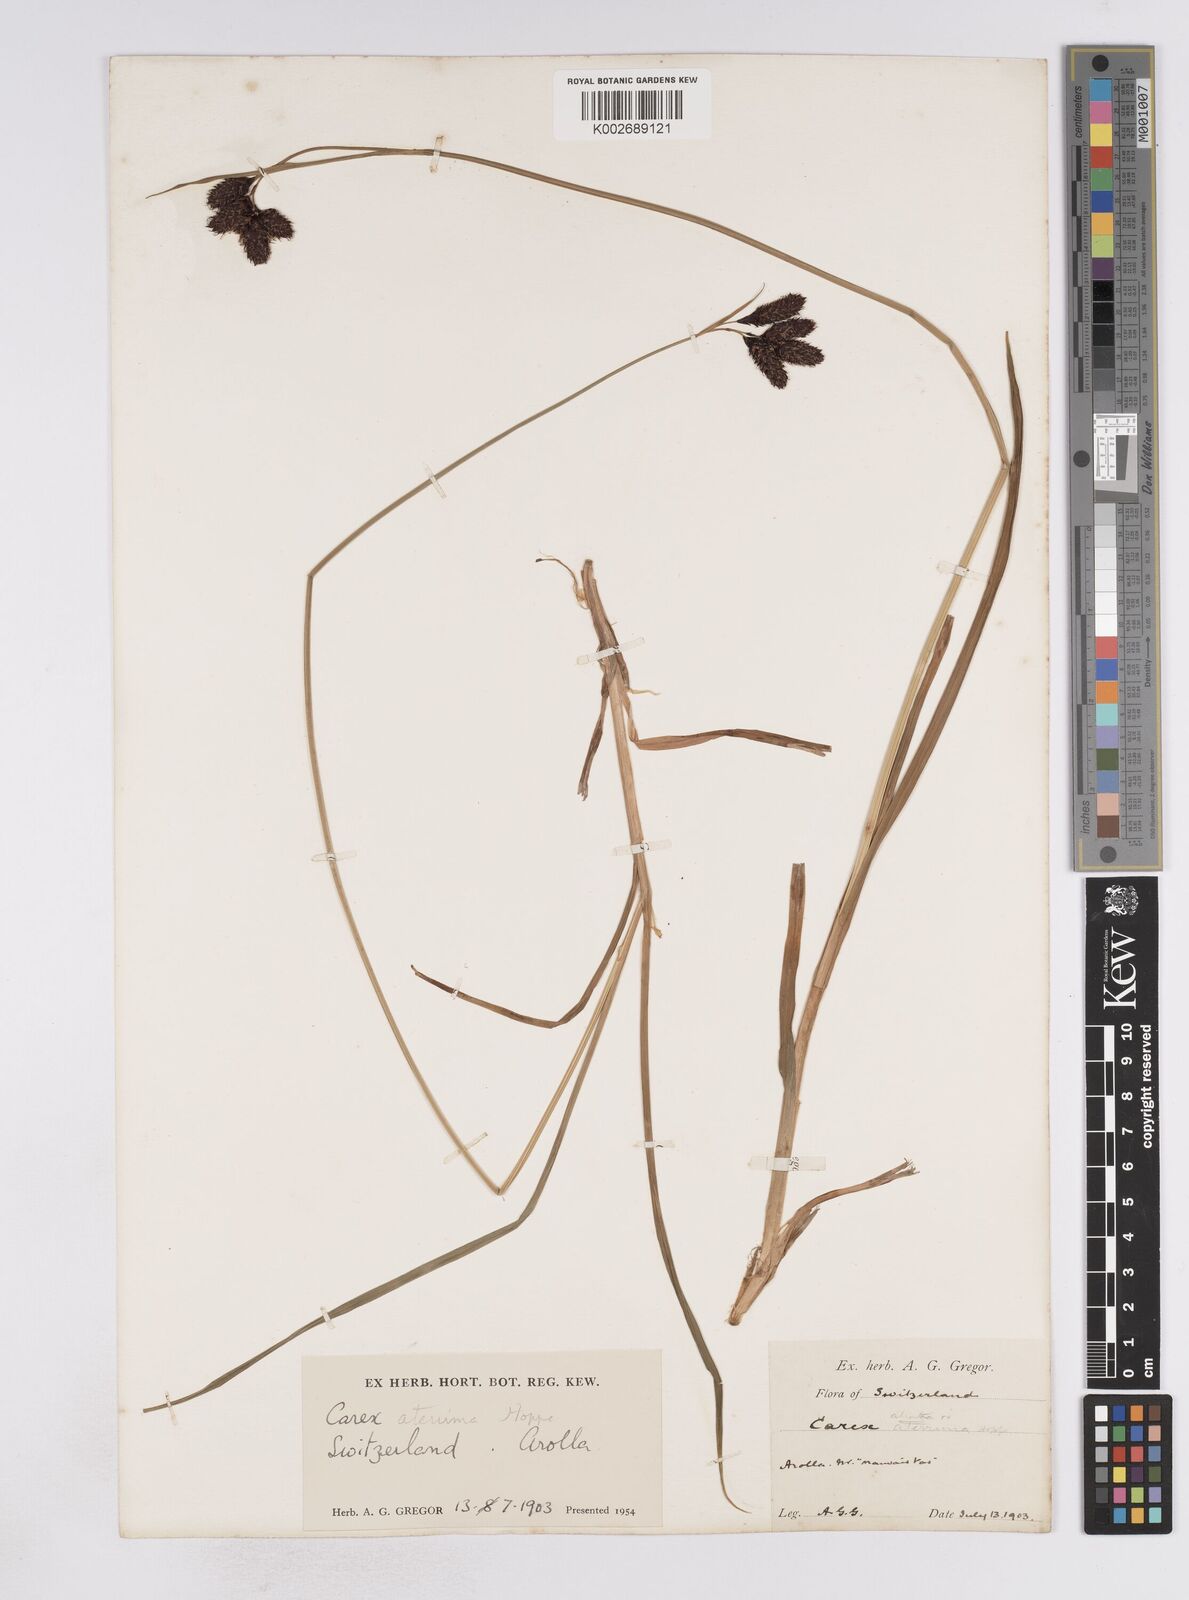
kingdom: Plantae
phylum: Tracheophyta
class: Liliopsida
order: Poales
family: Cyperaceae
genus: Carex
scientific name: Carex aterrima
